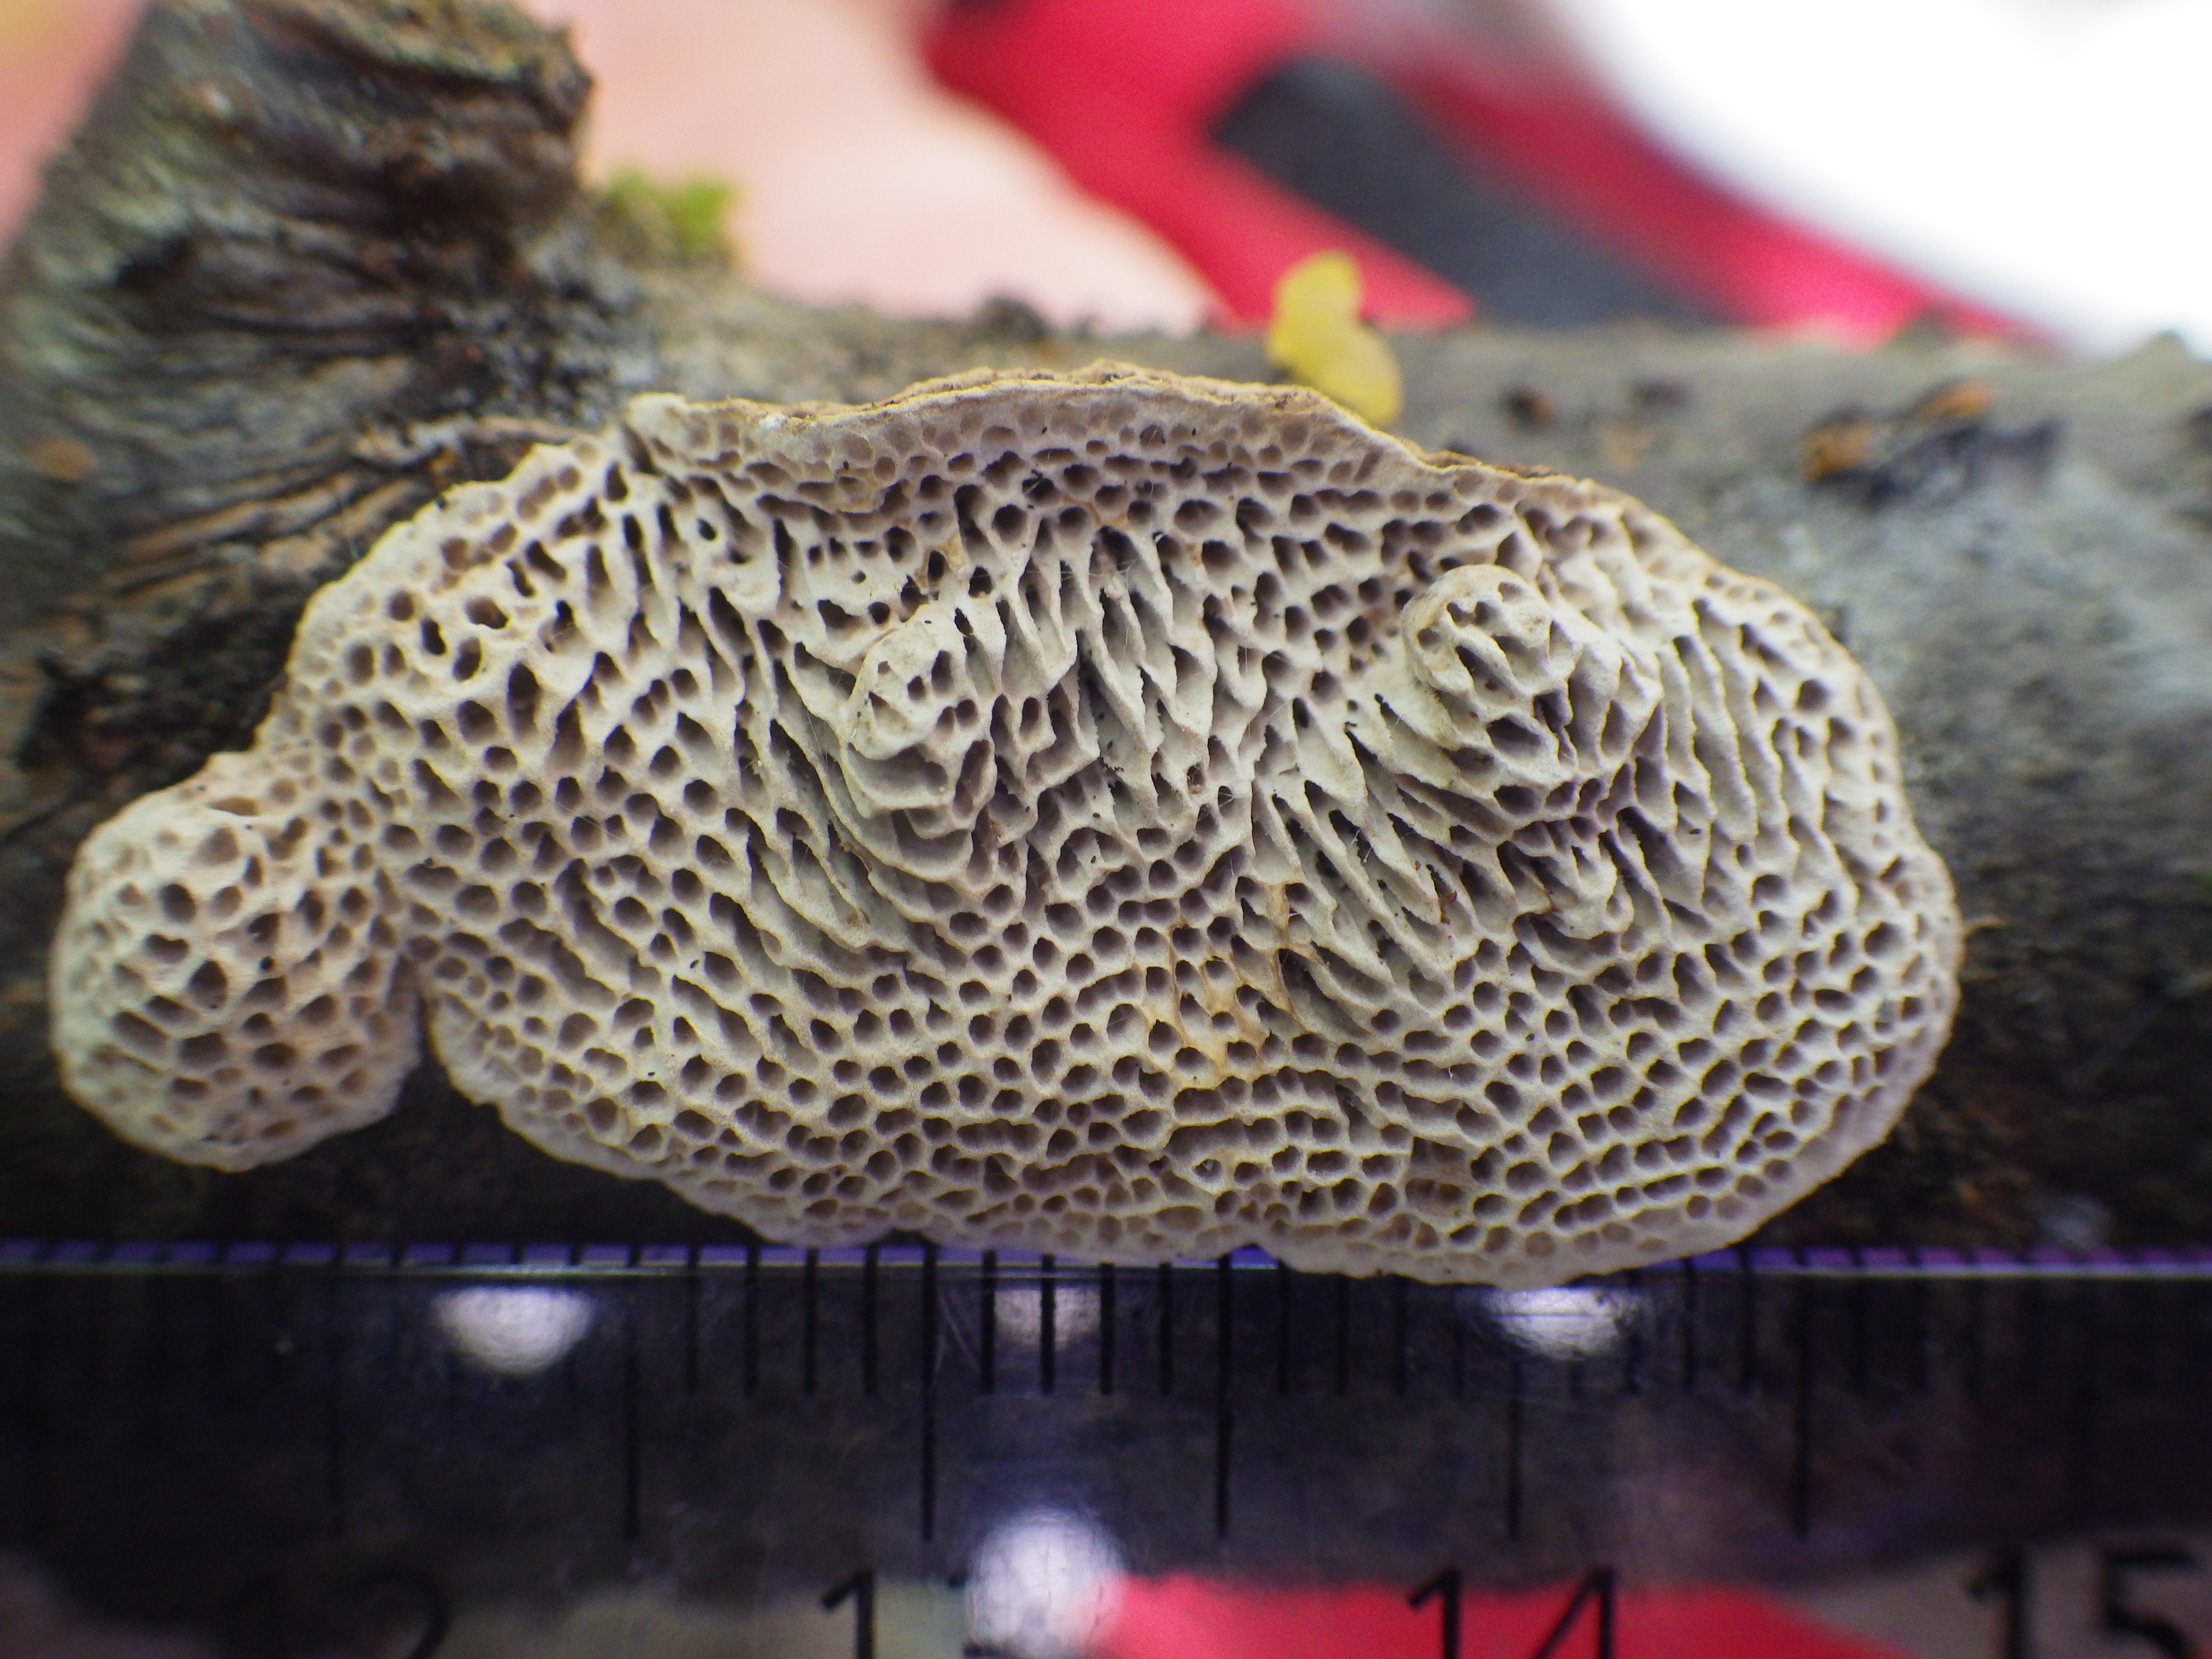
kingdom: Fungi
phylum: Basidiomycota
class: Agaricomycetes
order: Polyporales
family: Polyporaceae
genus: Podofomes
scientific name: Podofomes mollis
